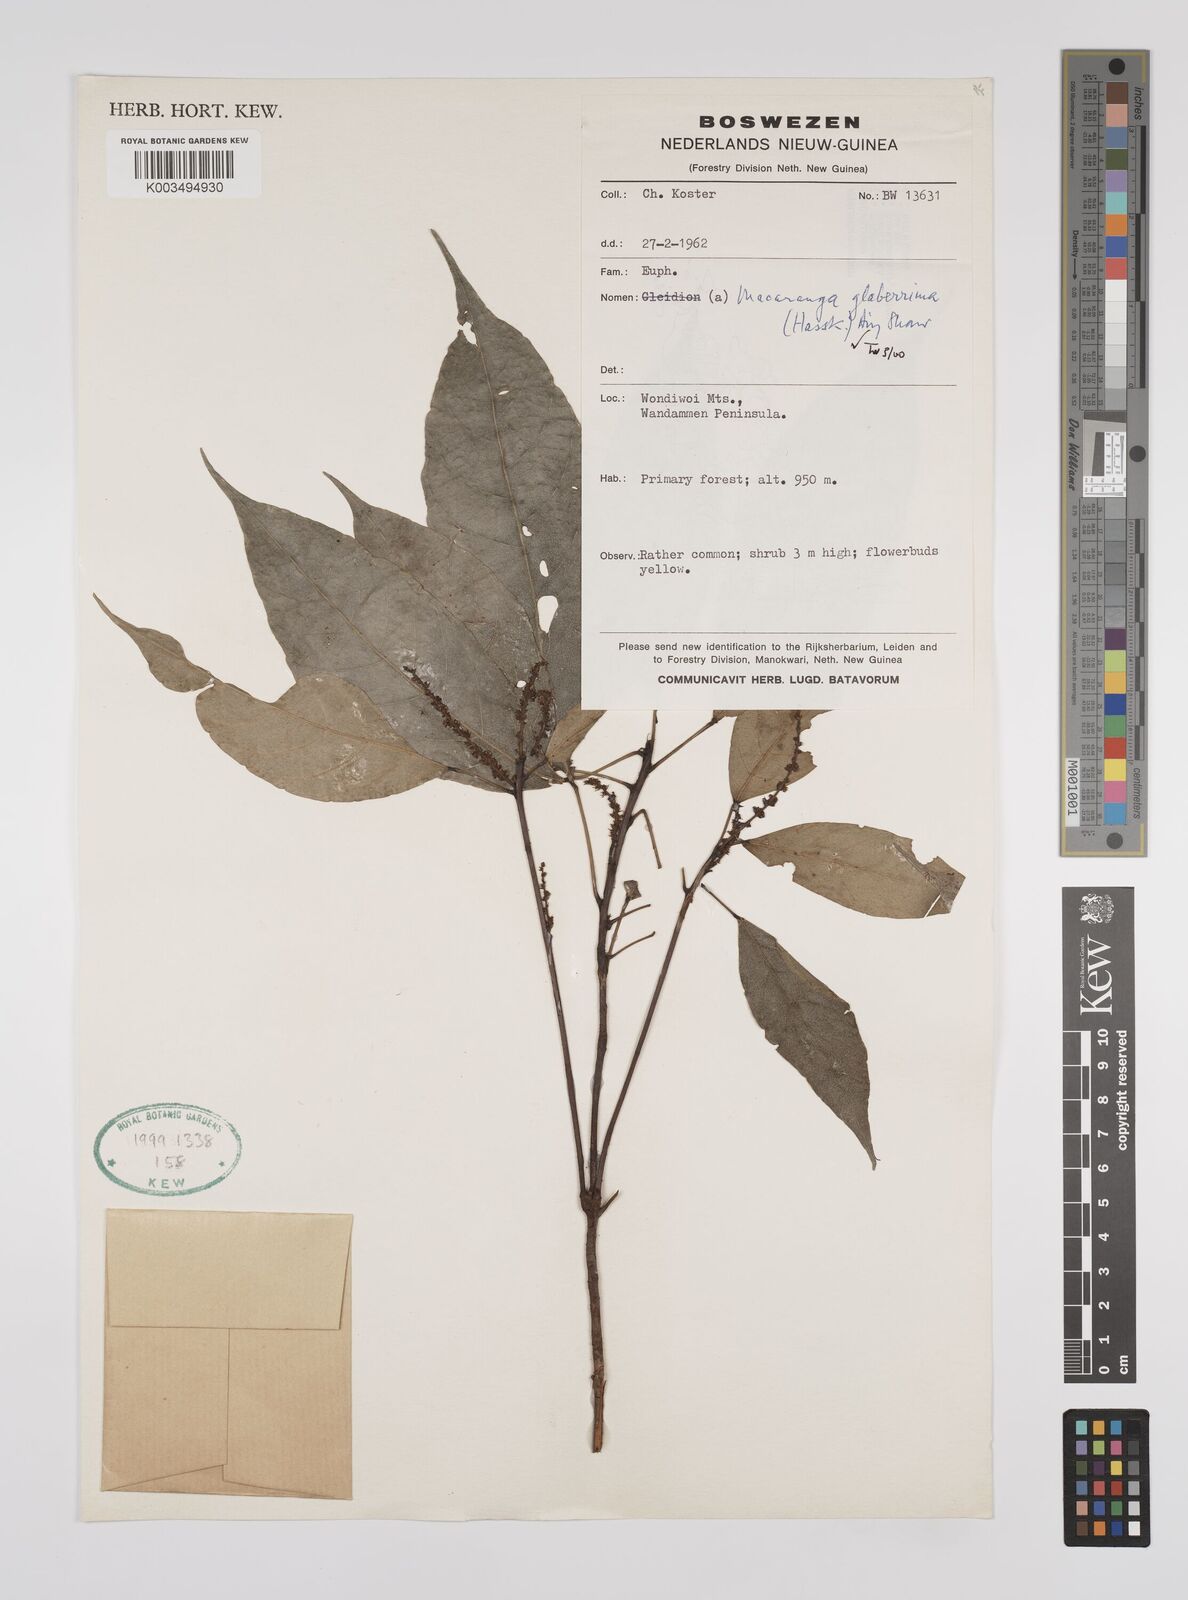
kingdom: Plantae
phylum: Tracheophyta
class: Magnoliopsida
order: Malpighiales
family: Euphorbiaceae
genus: Macaranga
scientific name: Macaranga glaberrima
